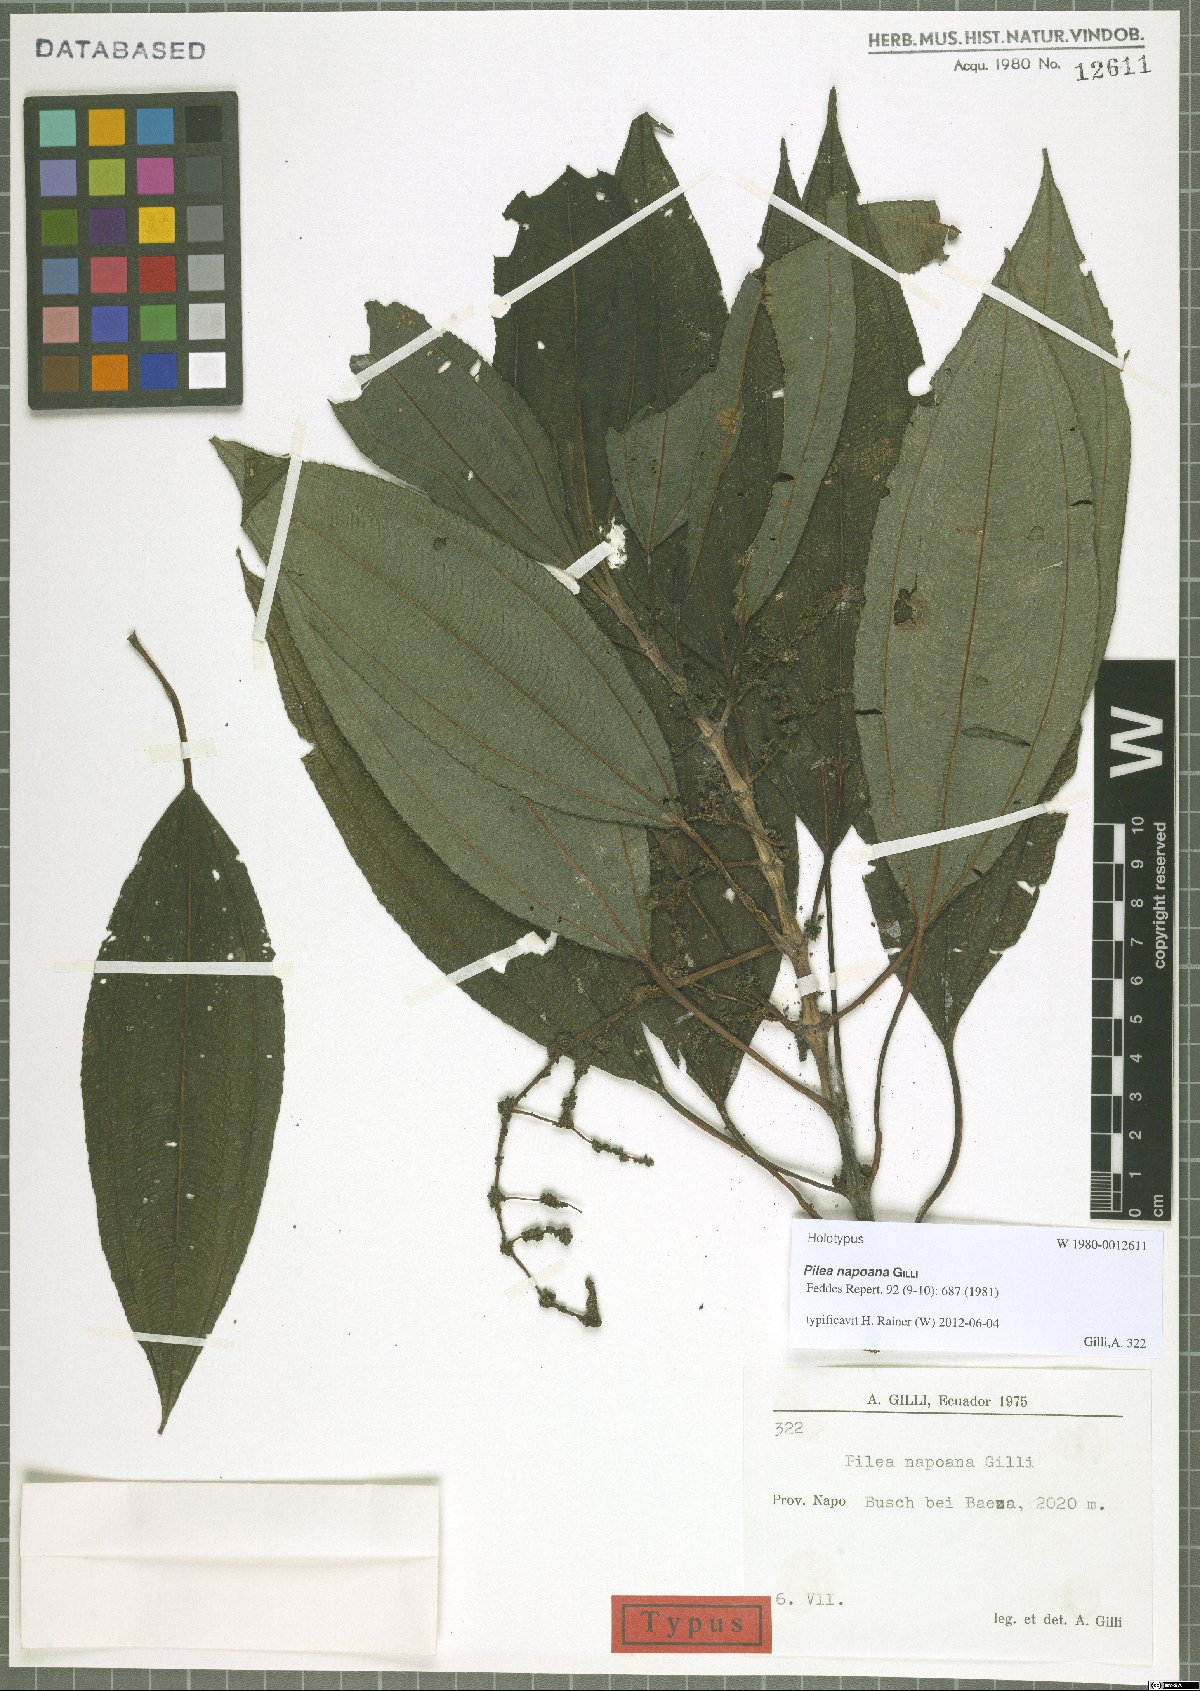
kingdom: Plantae
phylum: Tracheophyta
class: Magnoliopsida
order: Rosales
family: Urticaceae
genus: Pilea
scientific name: Pilea napoana
